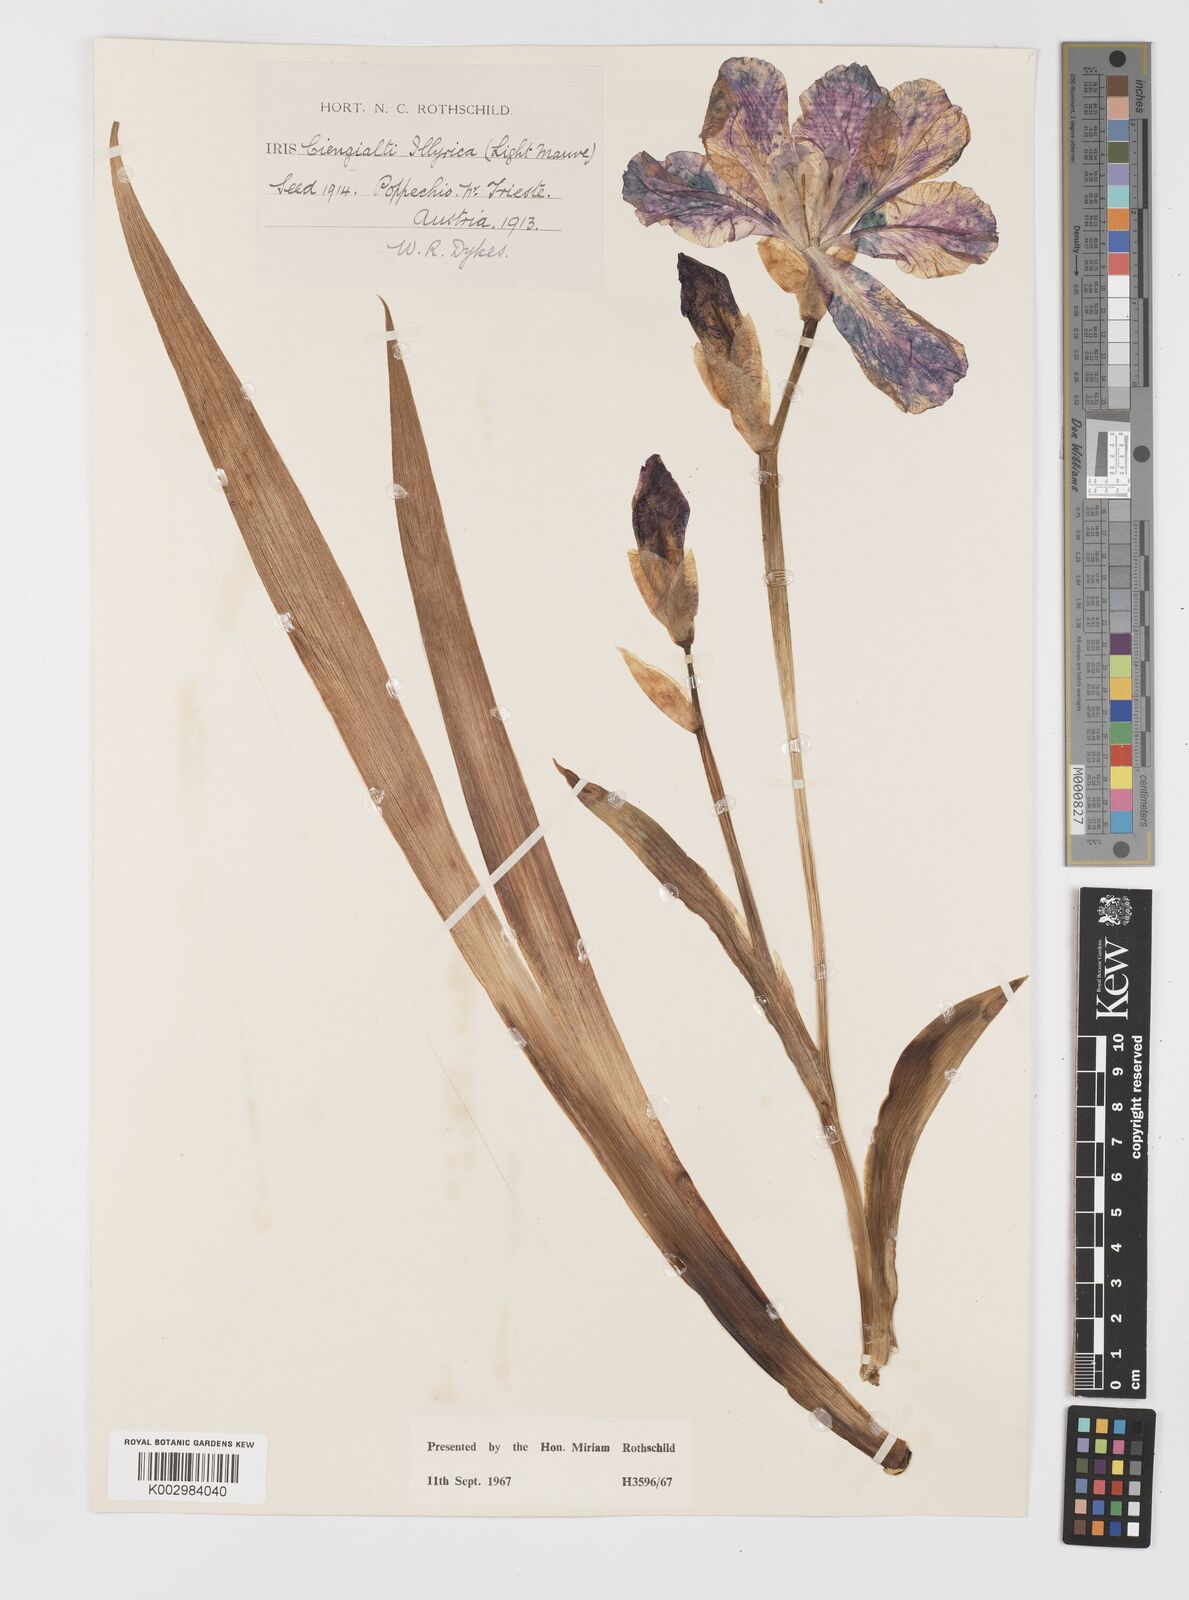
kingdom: Plantae
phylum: Tracheophyta
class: Liliopsida
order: Asparagales
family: Iridaceae
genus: Iris
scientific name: Iris pallida
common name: Sweet iris
